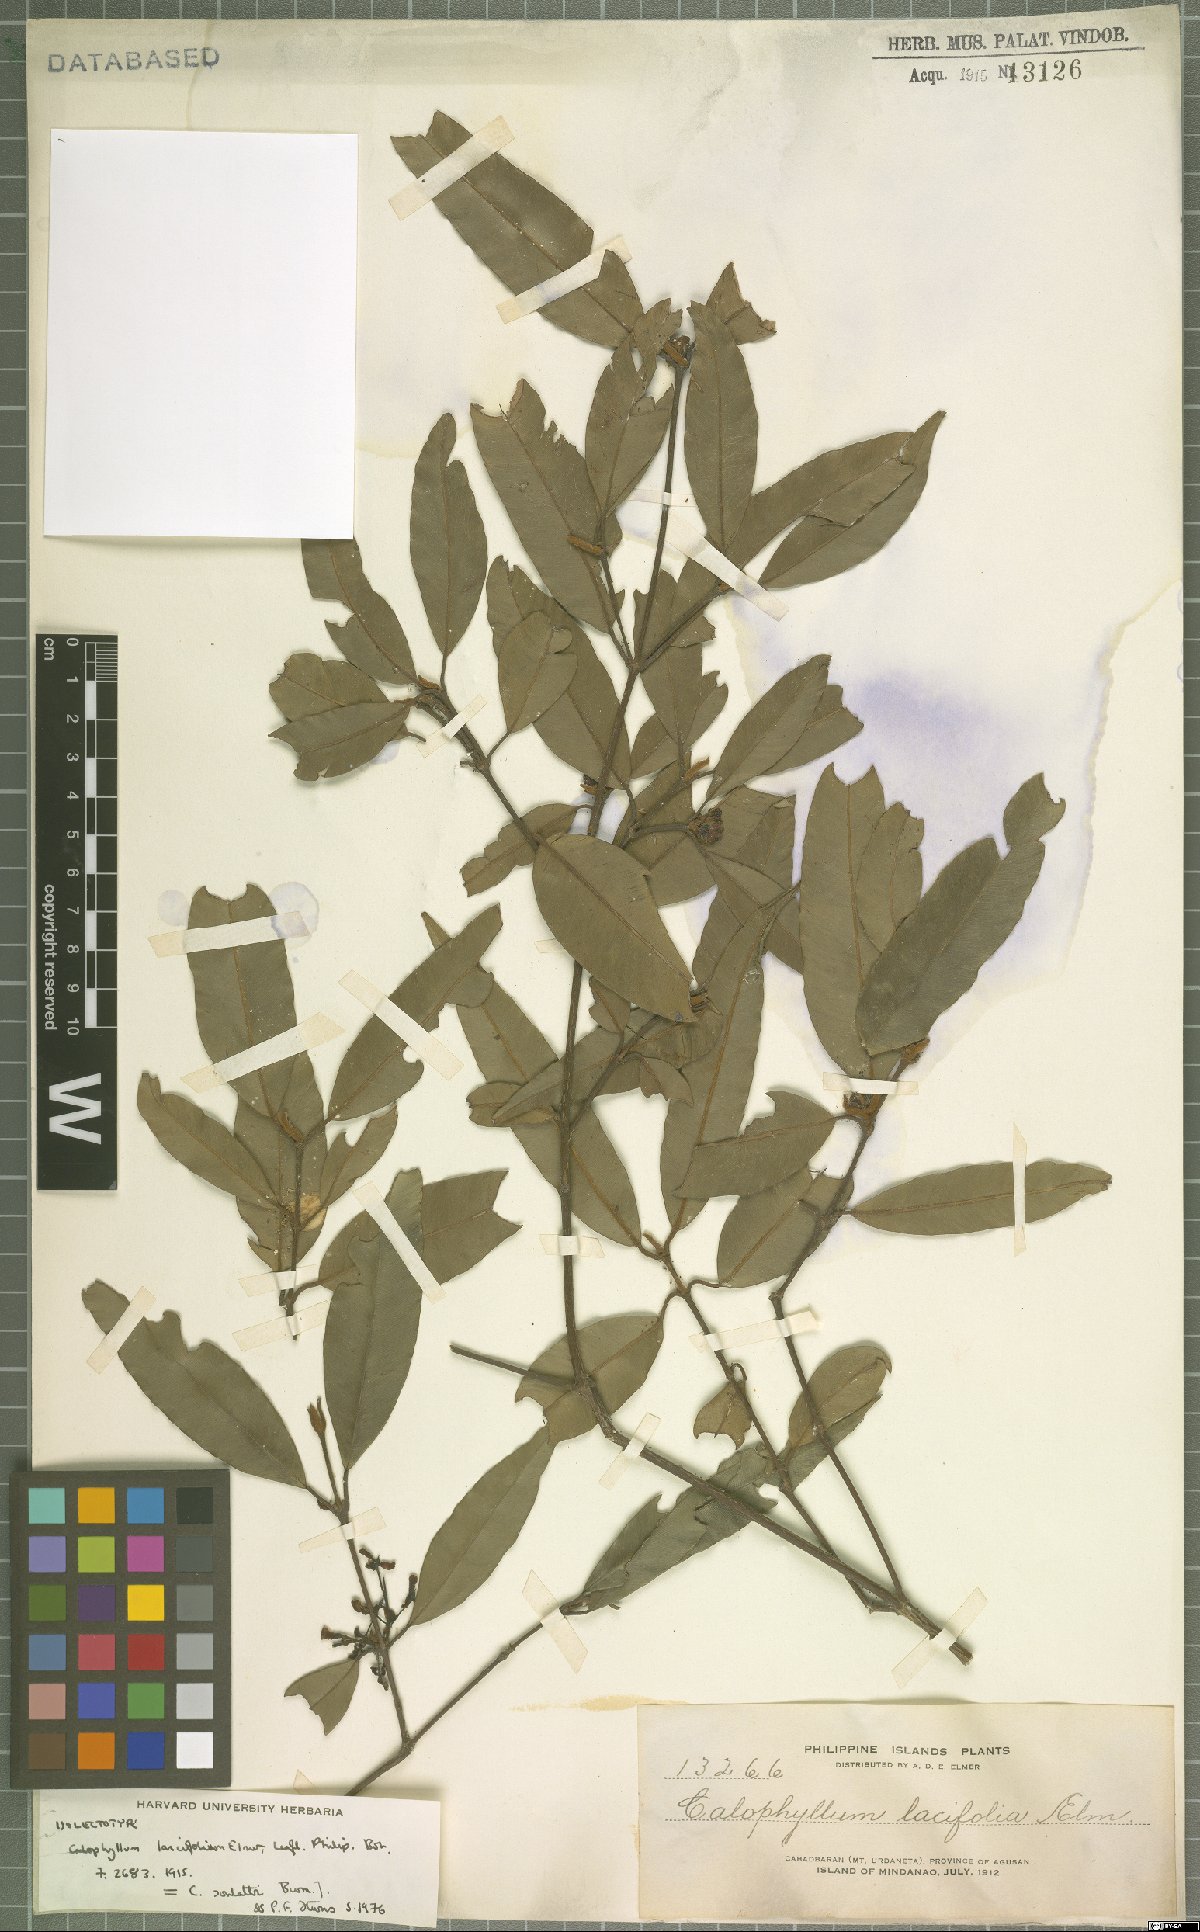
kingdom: Plantae
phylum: Tracheophyta
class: Magnoliopsida
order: Malpighiales
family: Calophyllaceae
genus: Calophyllum
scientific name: Calophyllum soulattri
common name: Bitangoor boonot
